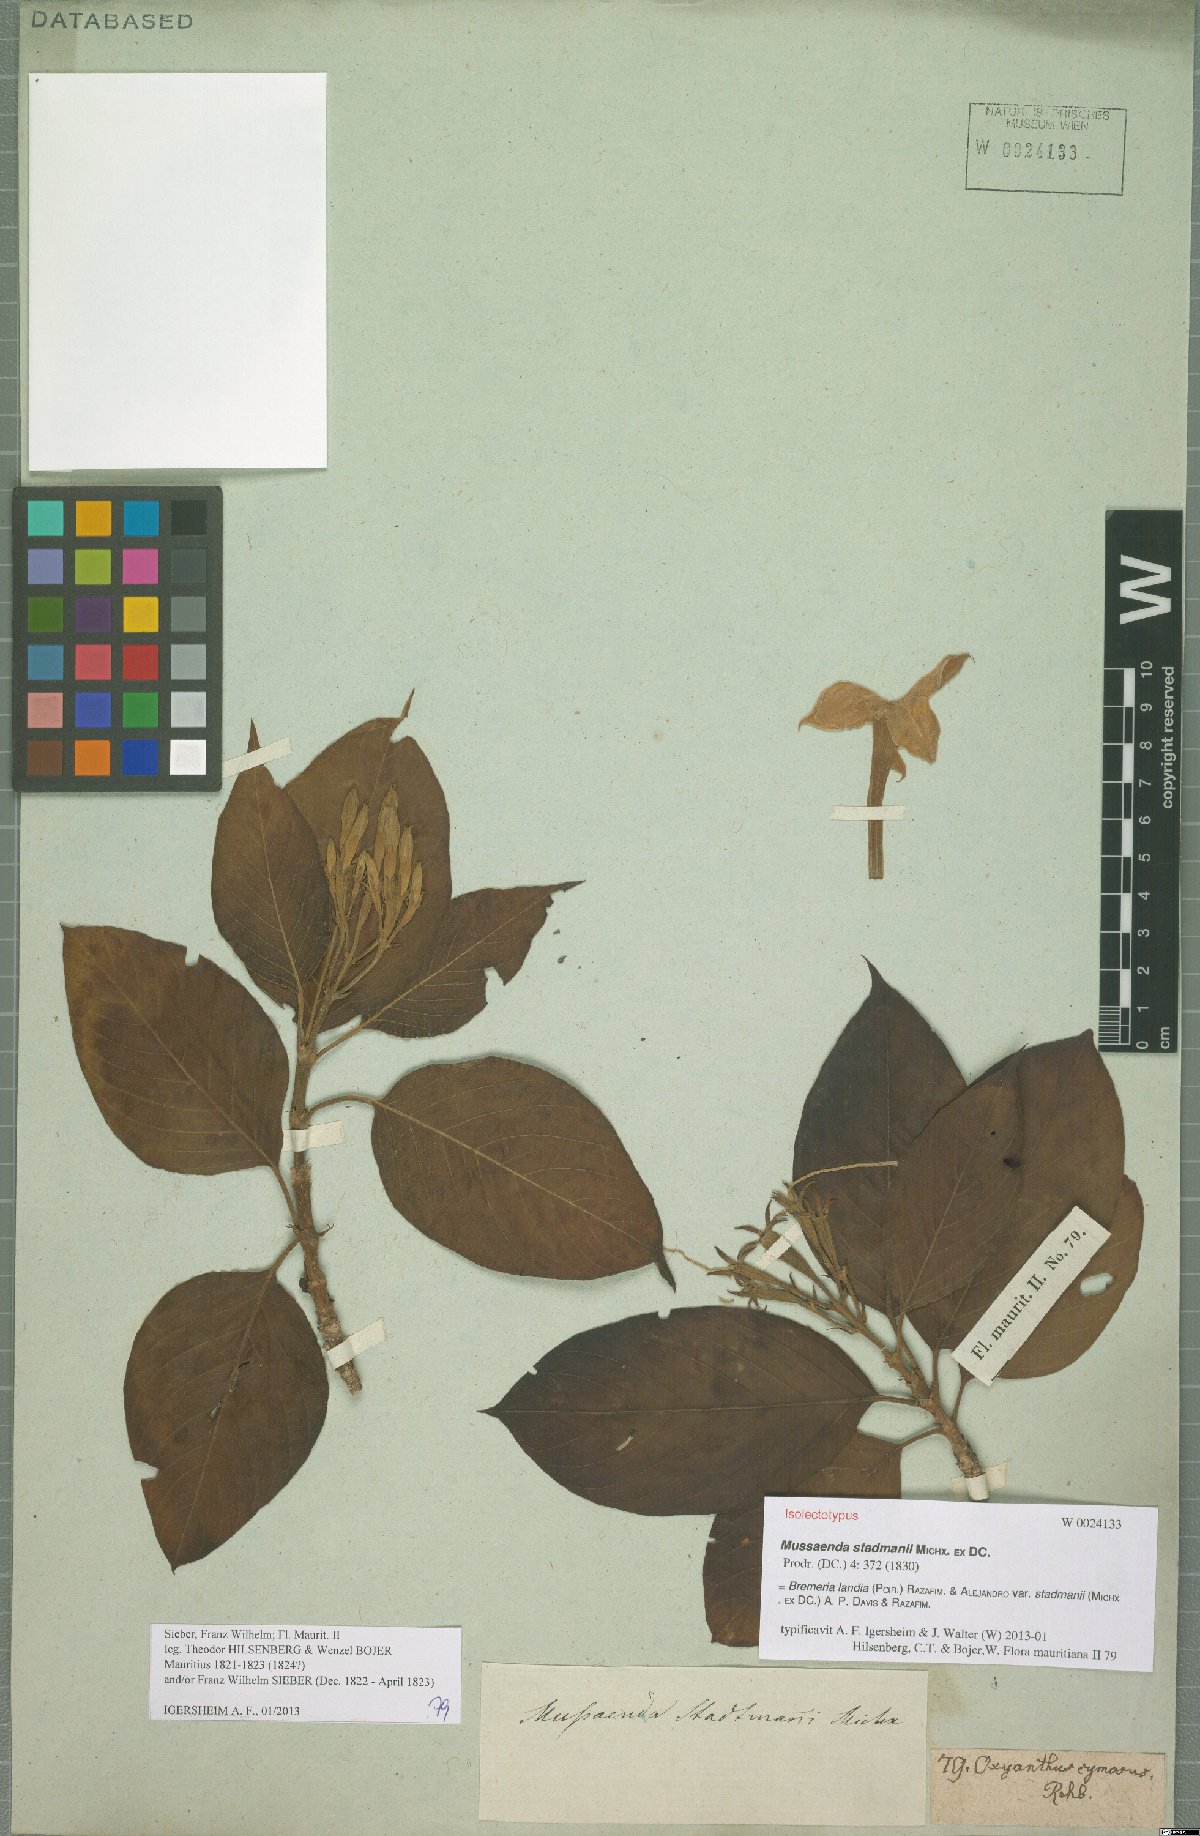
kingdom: Plantae
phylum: Tracheophyta
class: Magnoliopsida
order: Gentianales
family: Rubiaceae
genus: Bremeria
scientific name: Bremeria landia
